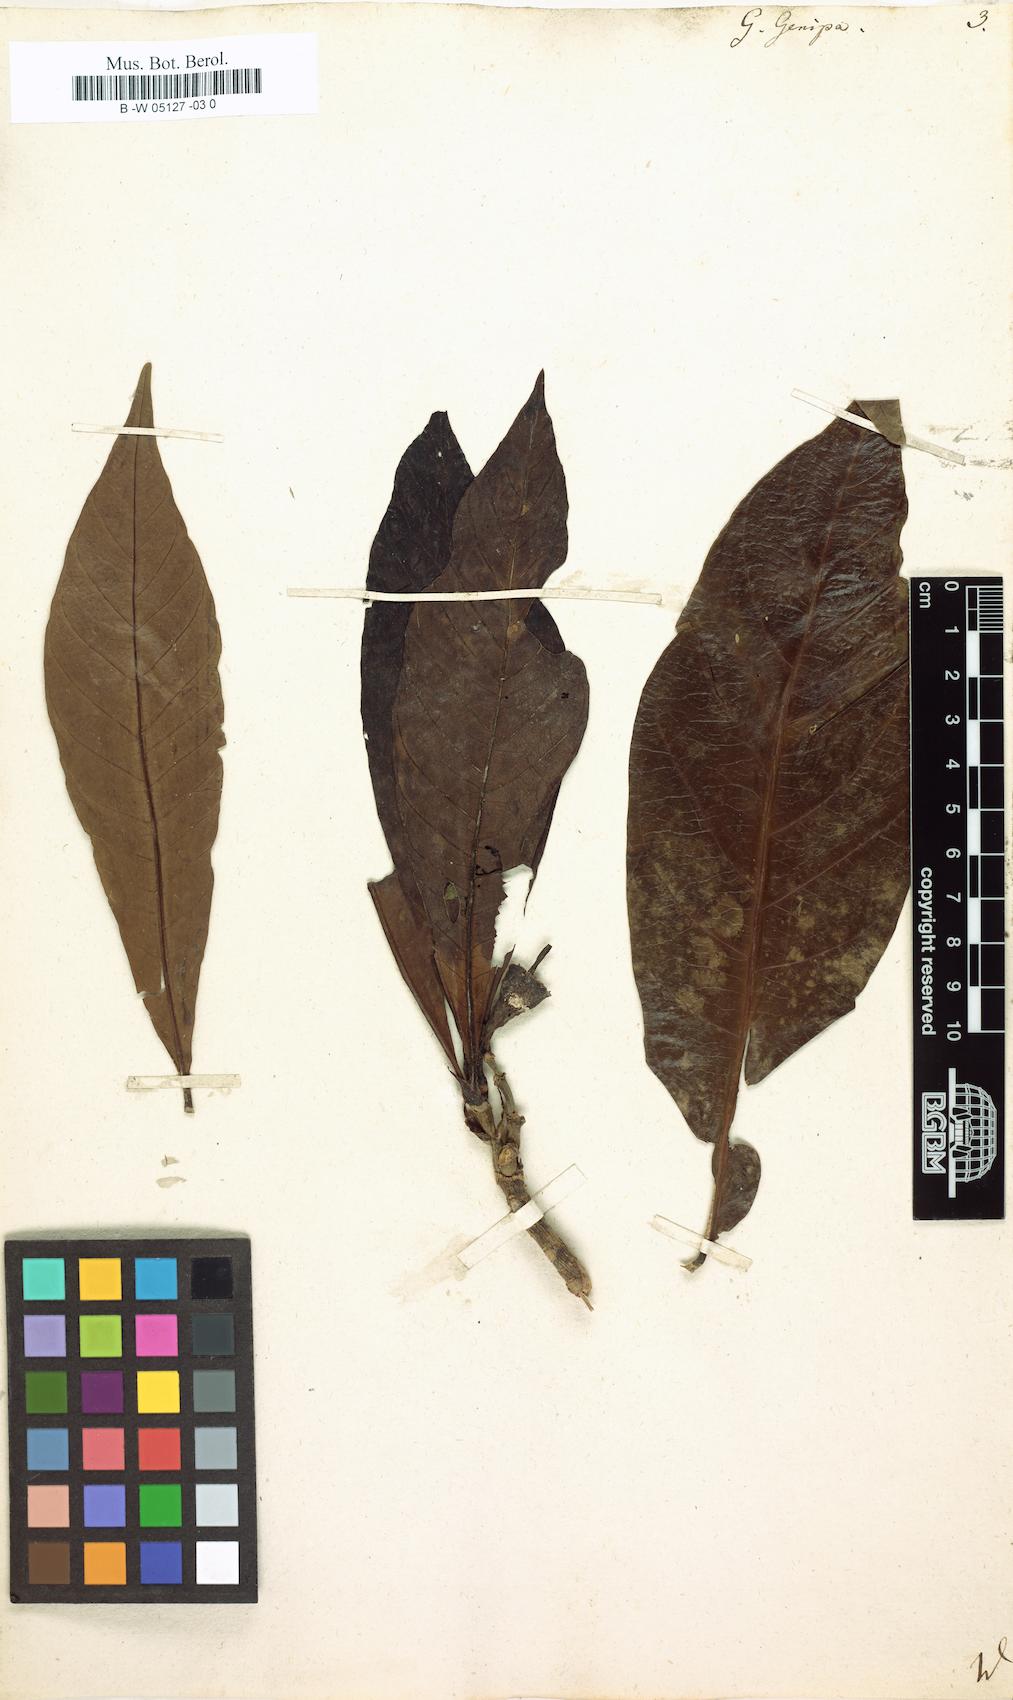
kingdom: Plantae
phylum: Tracheophyta
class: Magnoliopsida
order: Gentianales
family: Rubiaceae
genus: Genipa
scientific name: Genipa americana
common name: Genipap
